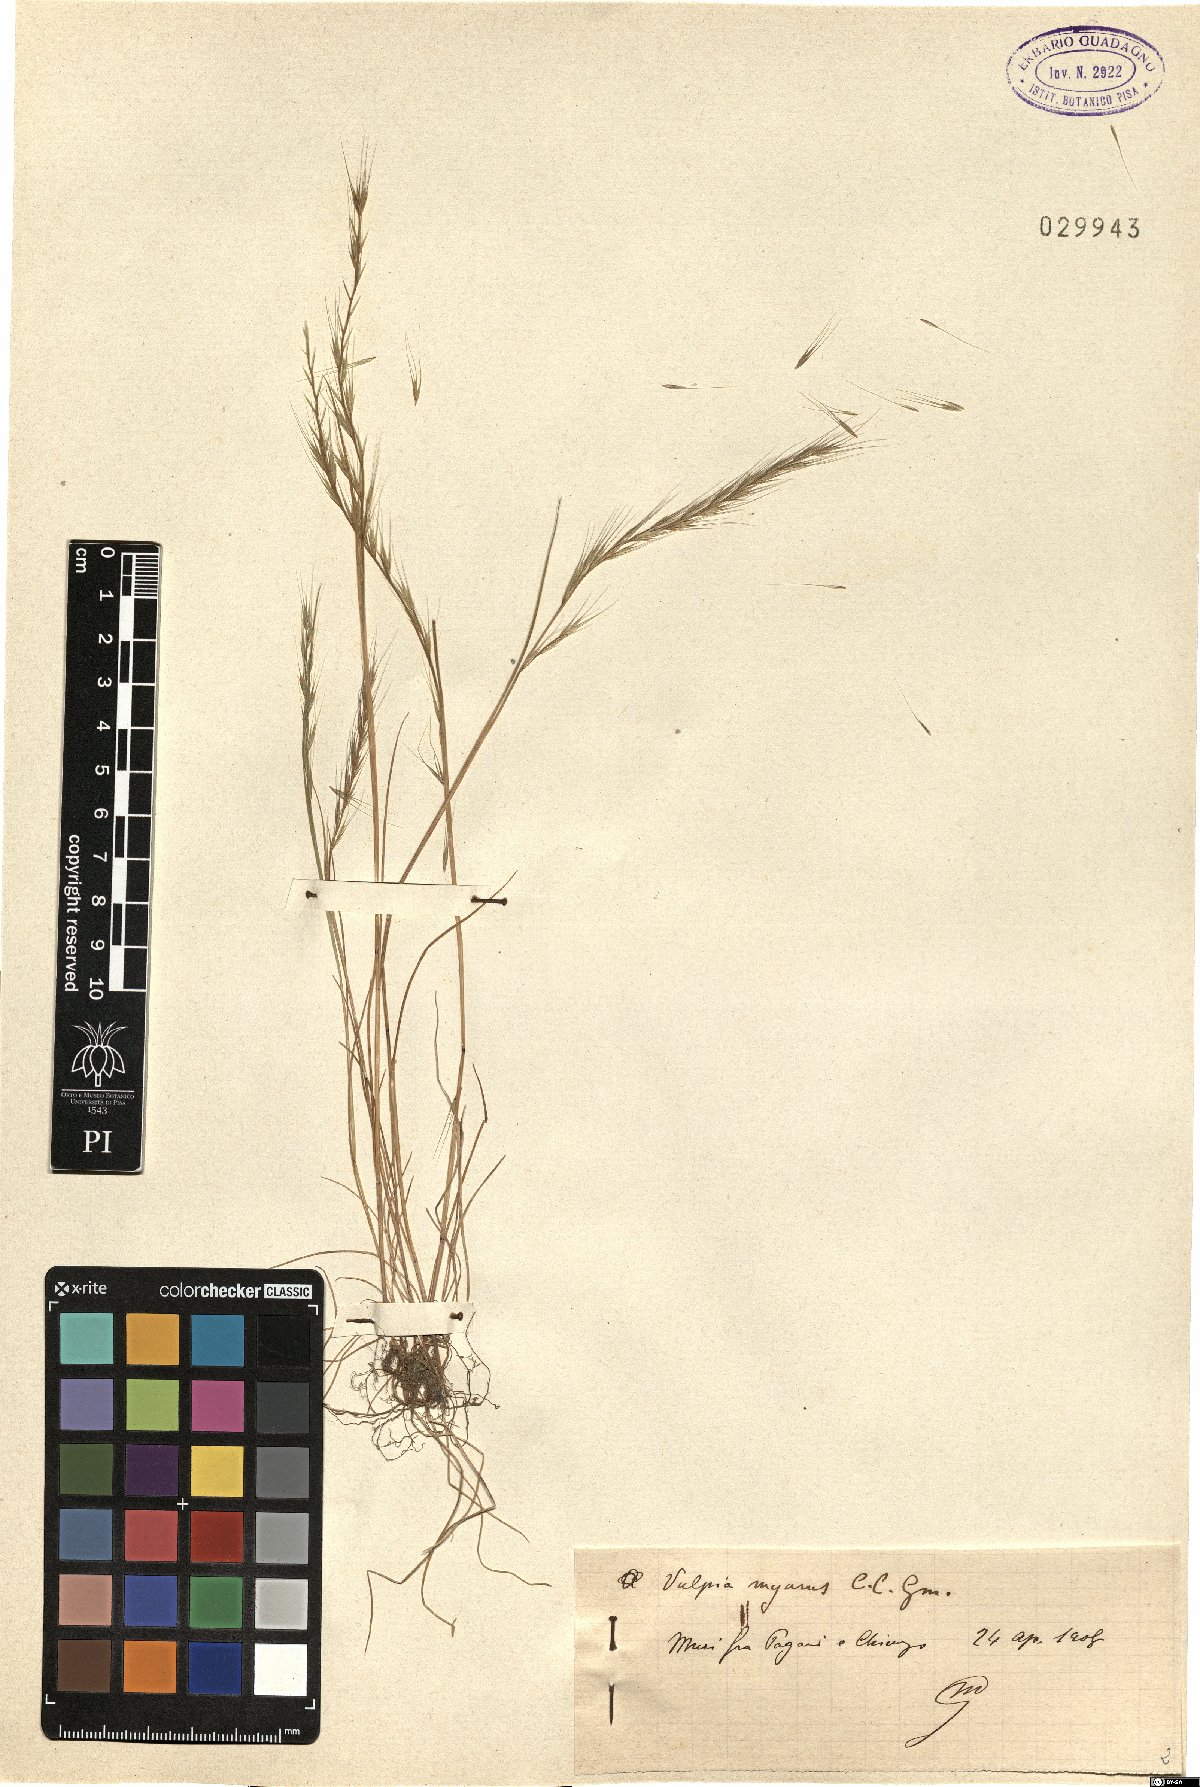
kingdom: Plantae
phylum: Tracheophyta
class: Liliopsida
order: Poales
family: Poaceae
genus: Festuca
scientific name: Festuca myuros
